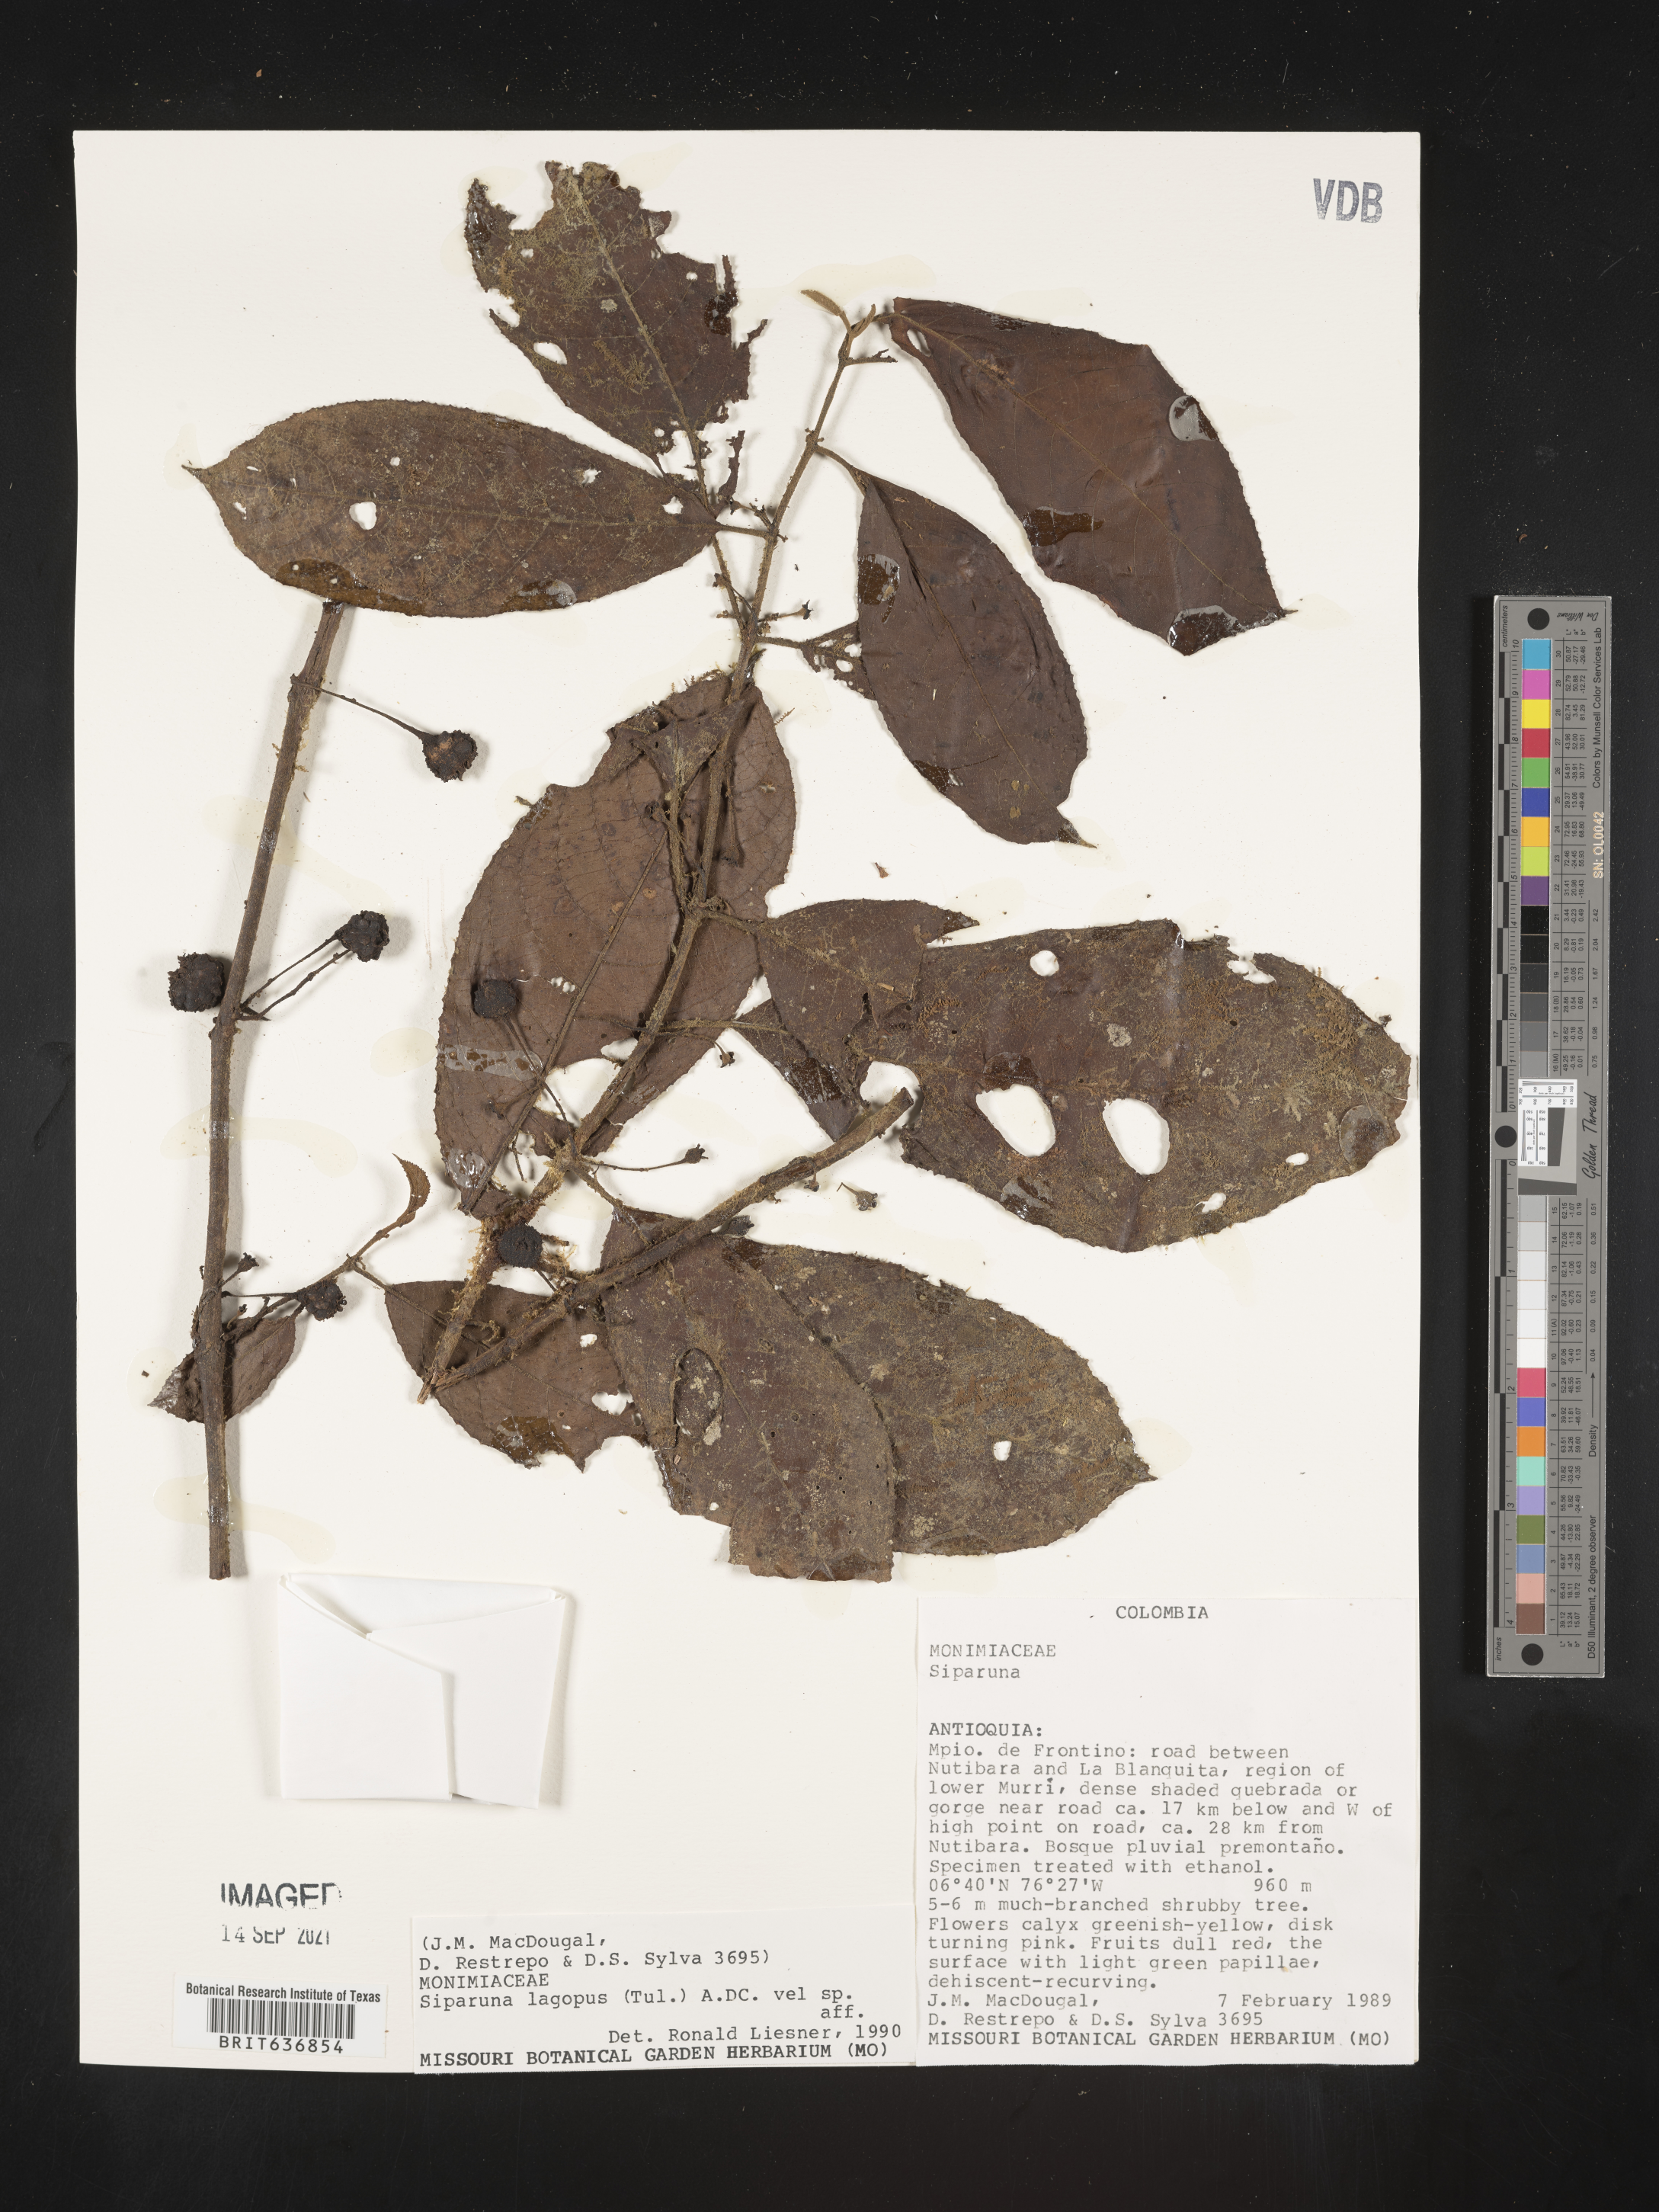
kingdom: Plantae
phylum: Tracheophyta
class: Magnoliopsida
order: Laurales
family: Siparunaceae
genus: Siparuna
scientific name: Siparuna
